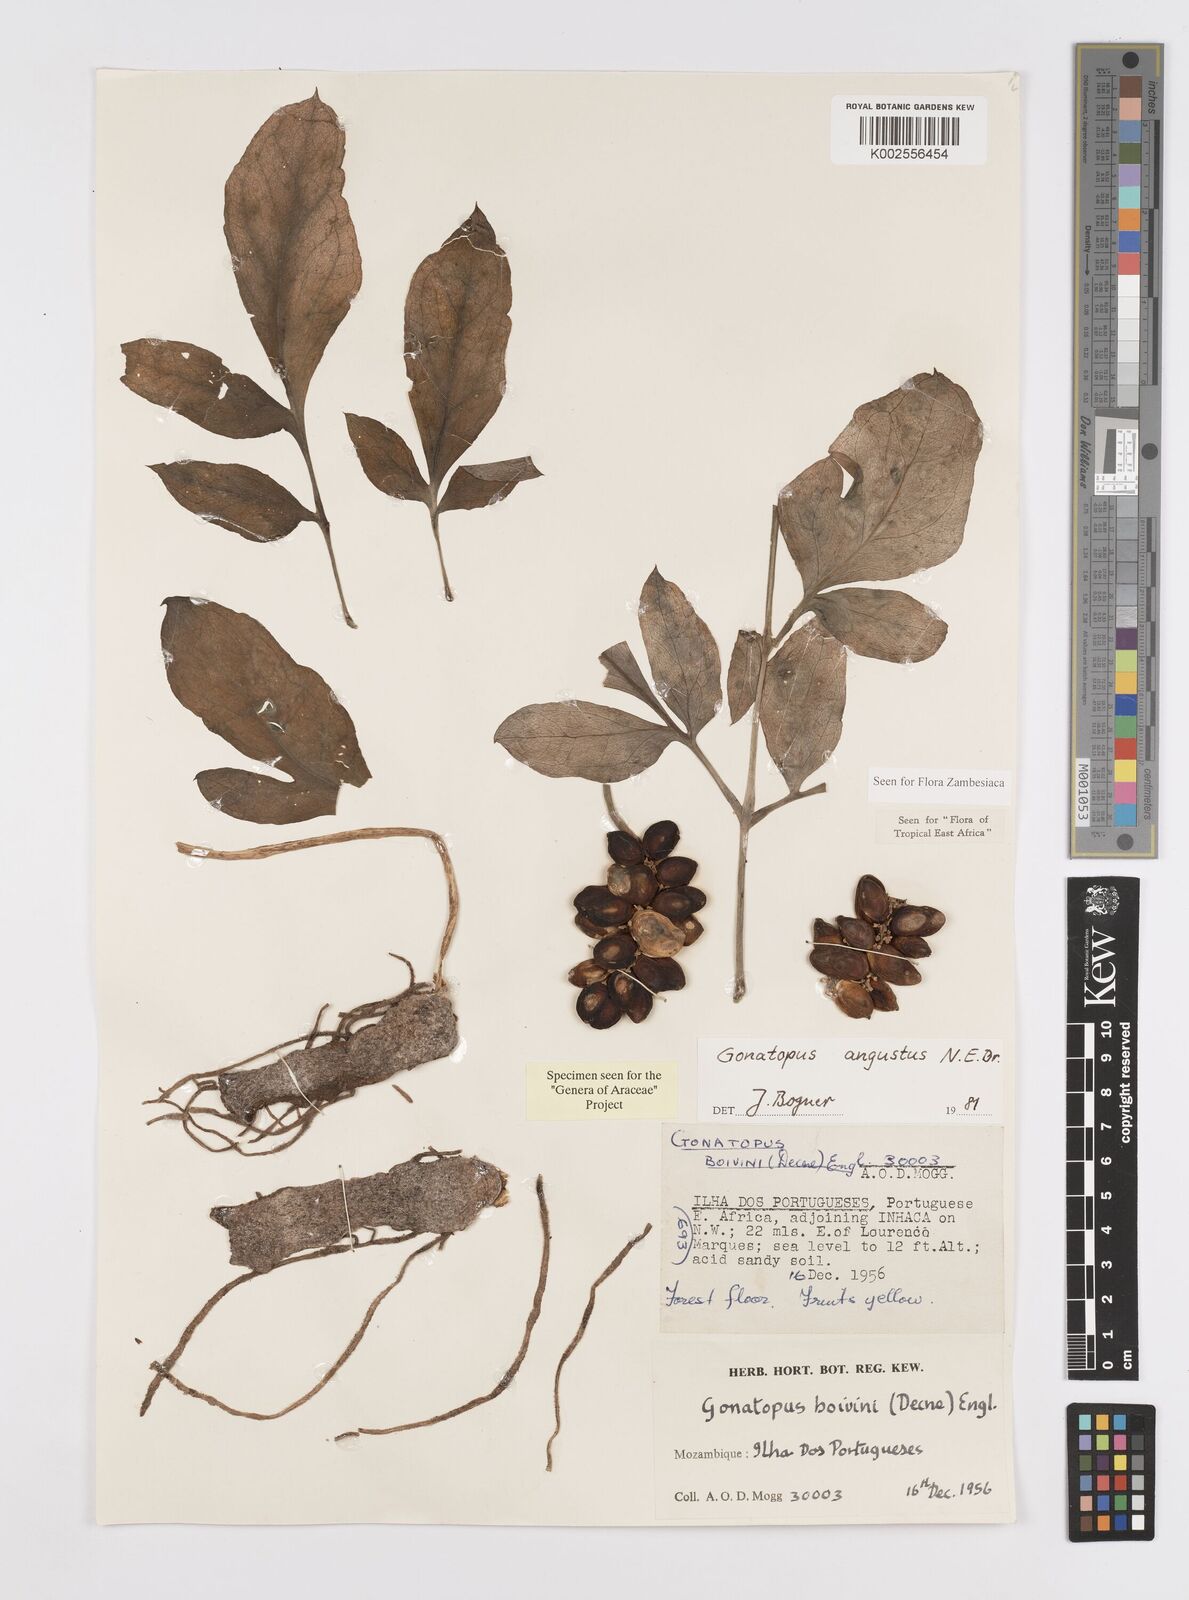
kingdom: Plantae
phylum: Tracheophyta
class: Liliopsida
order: Alismatales
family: Araceae
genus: Gonatopus
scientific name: Gonatopus angustus
